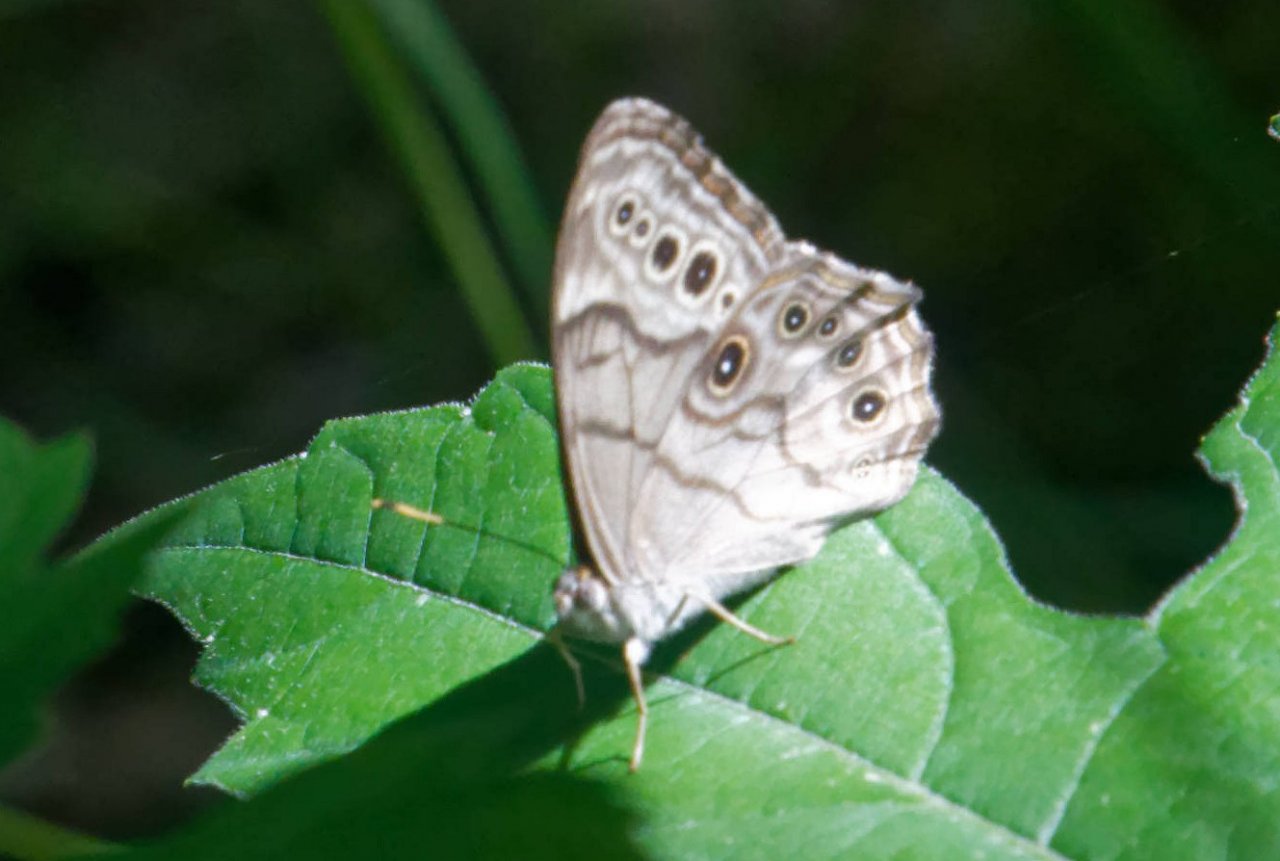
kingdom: Animalia
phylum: Arthropoda
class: Insecta
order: Lepidoptera
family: Nymphalidae
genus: Lethe
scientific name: Lethe anthedon
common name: Northern Pearly-Eye
